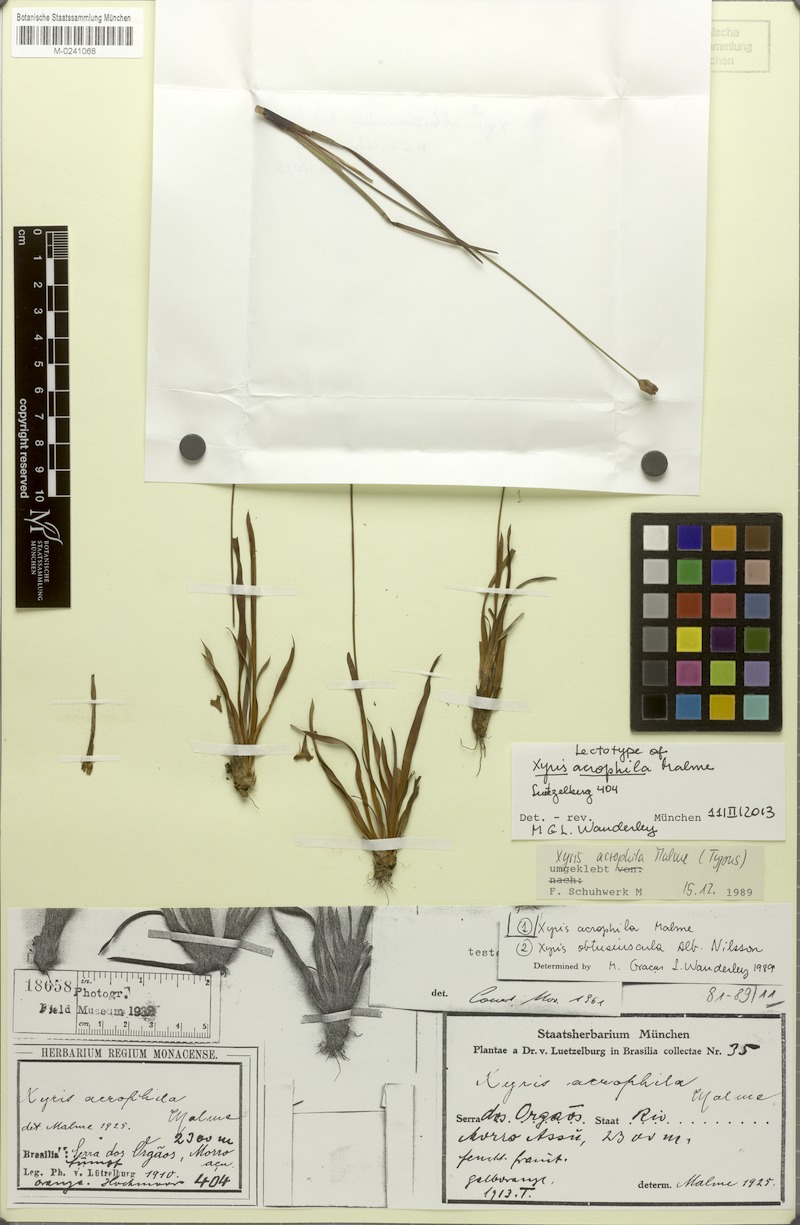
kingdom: Plantae
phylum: Tracheophyta
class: Liliopsida
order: Poales
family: Xyridaceae
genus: Xyris
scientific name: Xyris acrophila
